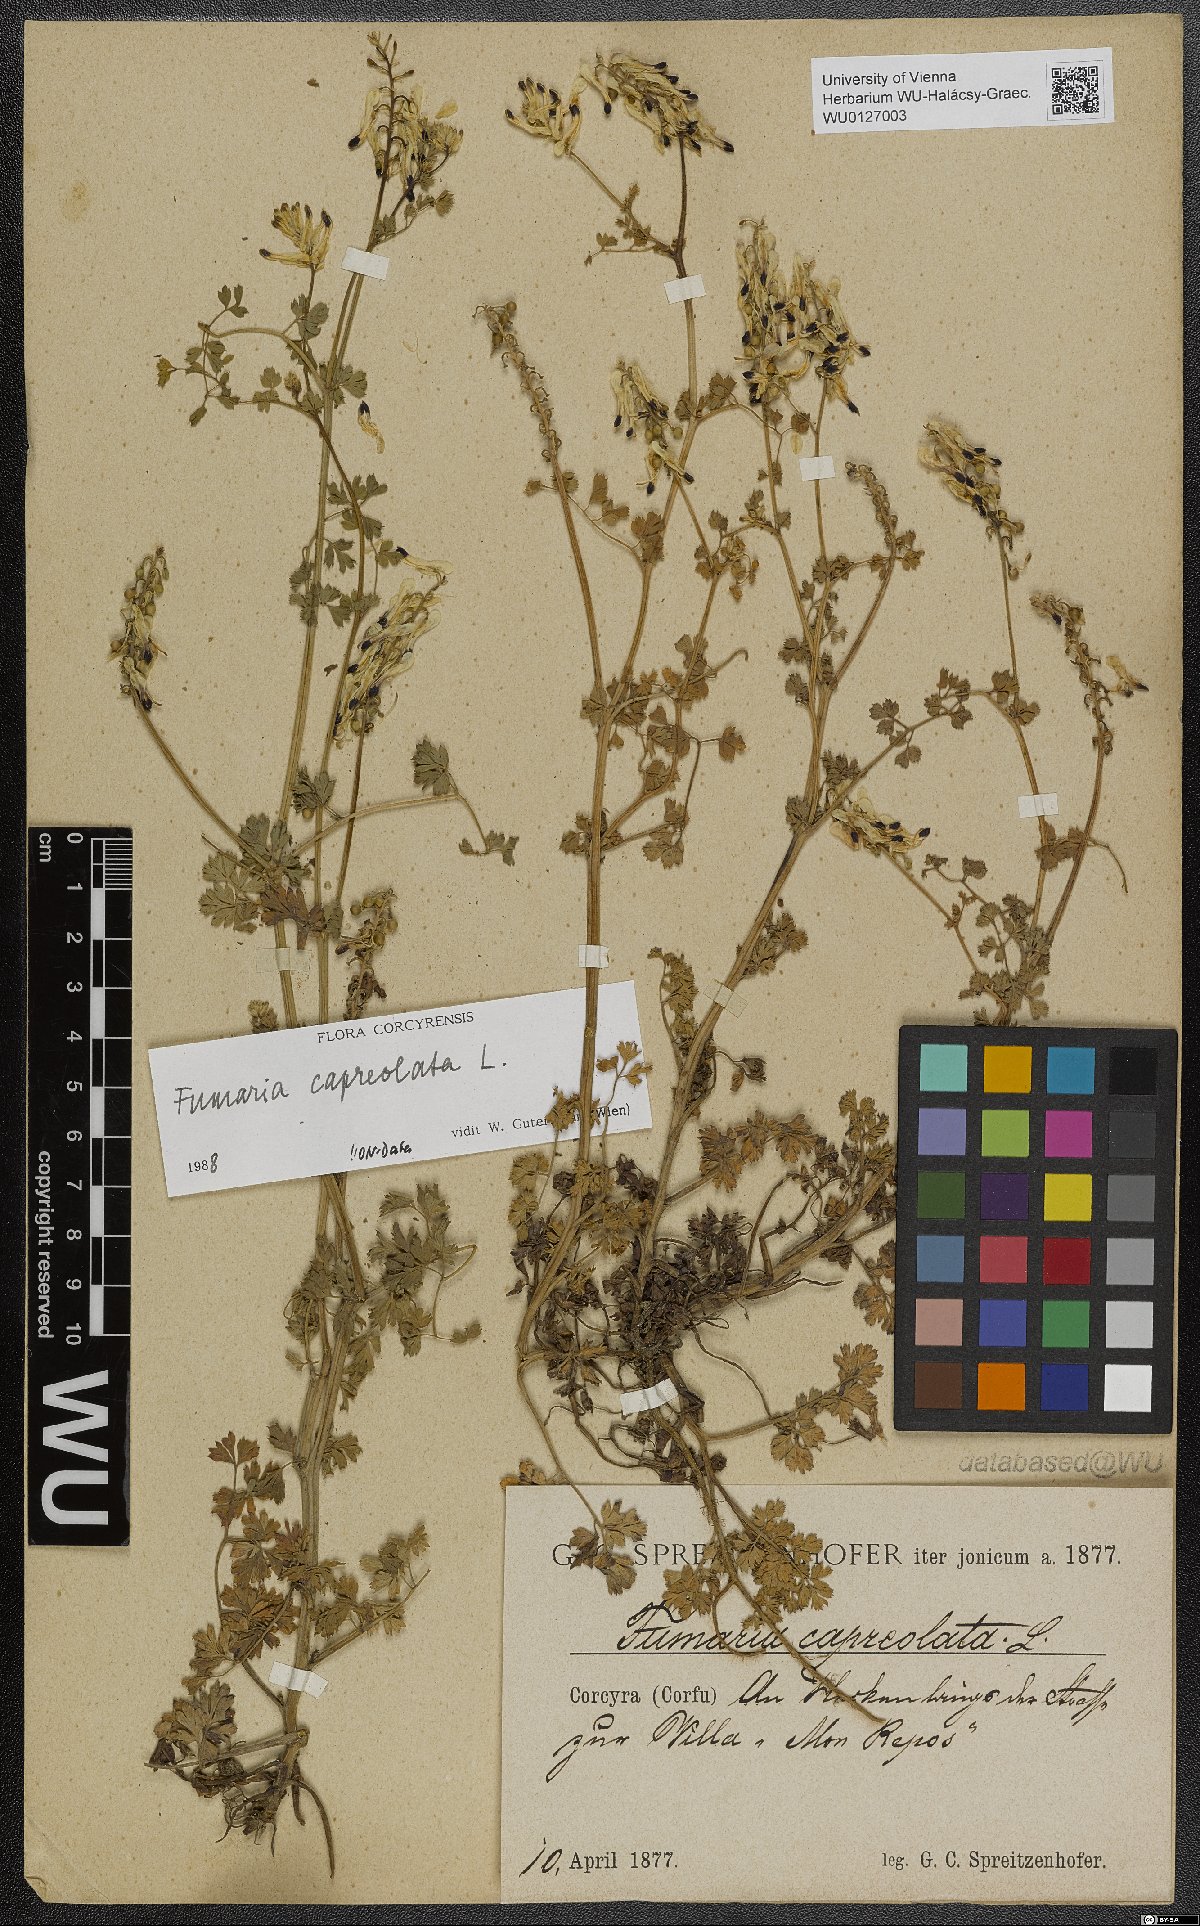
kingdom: Plantae
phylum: Tracheophyta
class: Magnoliopsida
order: Ranunculales
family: Papaveraceae
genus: Fumaria
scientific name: Fumaria capreolata
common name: White ramping-fumitory
